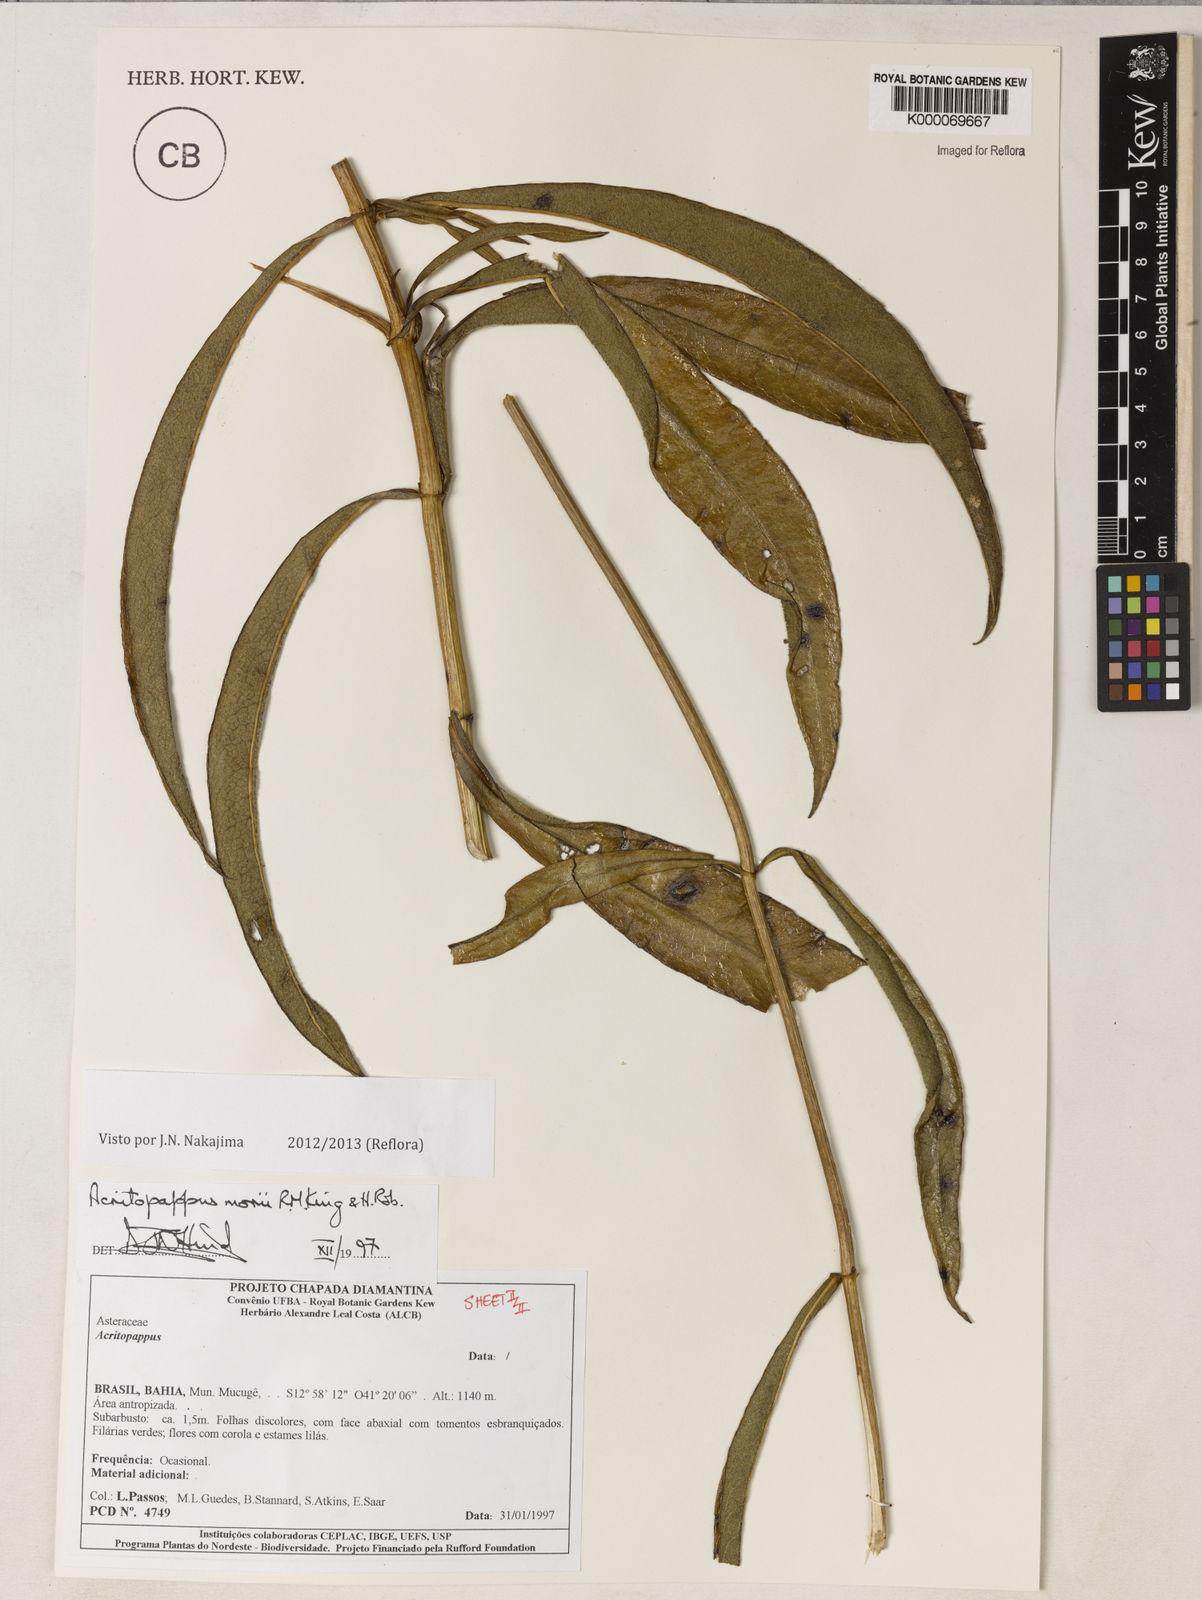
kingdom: Plantae
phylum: Tracheophyta
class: Magnoliopsida
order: Asterales
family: Asteraceae
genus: Acritopappus
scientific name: Acritopappus morii
